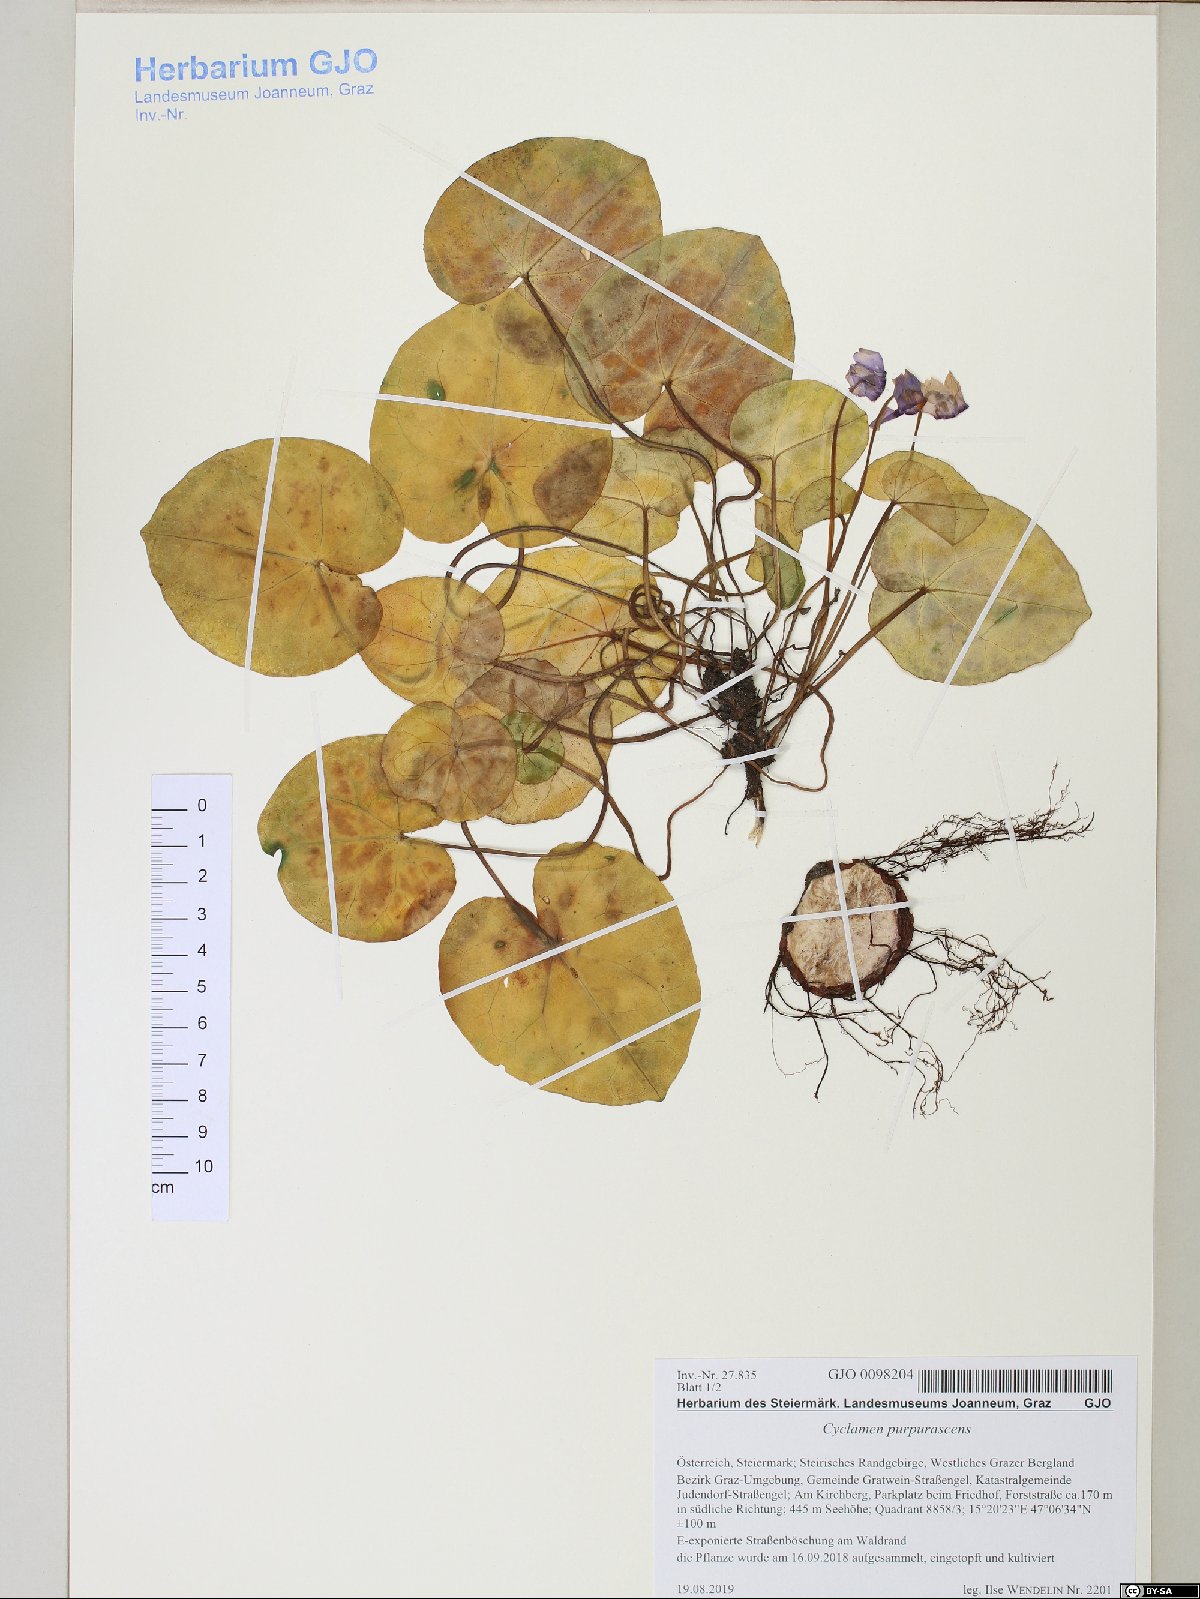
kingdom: Plantae
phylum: Tracheophyta
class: Magnoliopsida
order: Ericales
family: Primulaceae
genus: Cyclamen
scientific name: Cyclamen purpurascens
